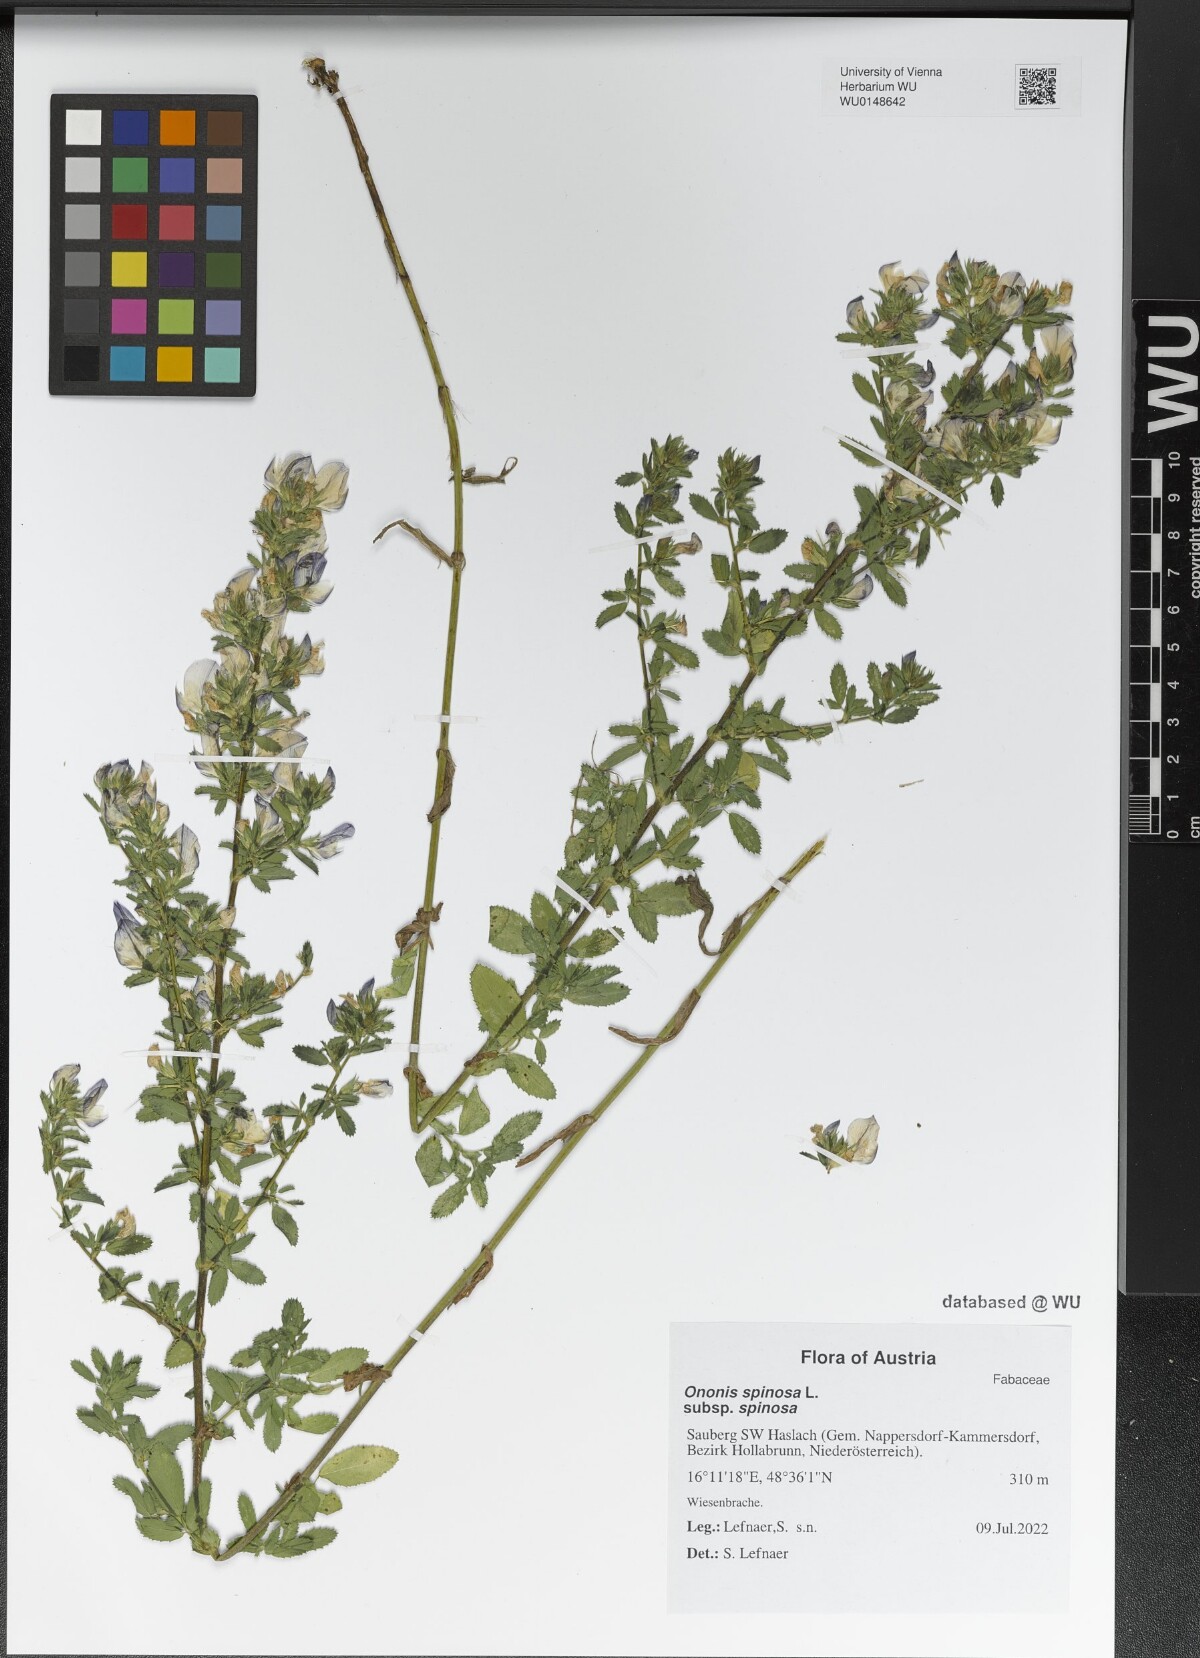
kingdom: Plantae
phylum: Tracheophyta
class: Magnoliopsida
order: Fabales
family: Fabaceae
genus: Ononis
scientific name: Ononis spinosa
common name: Spiny restharrow
